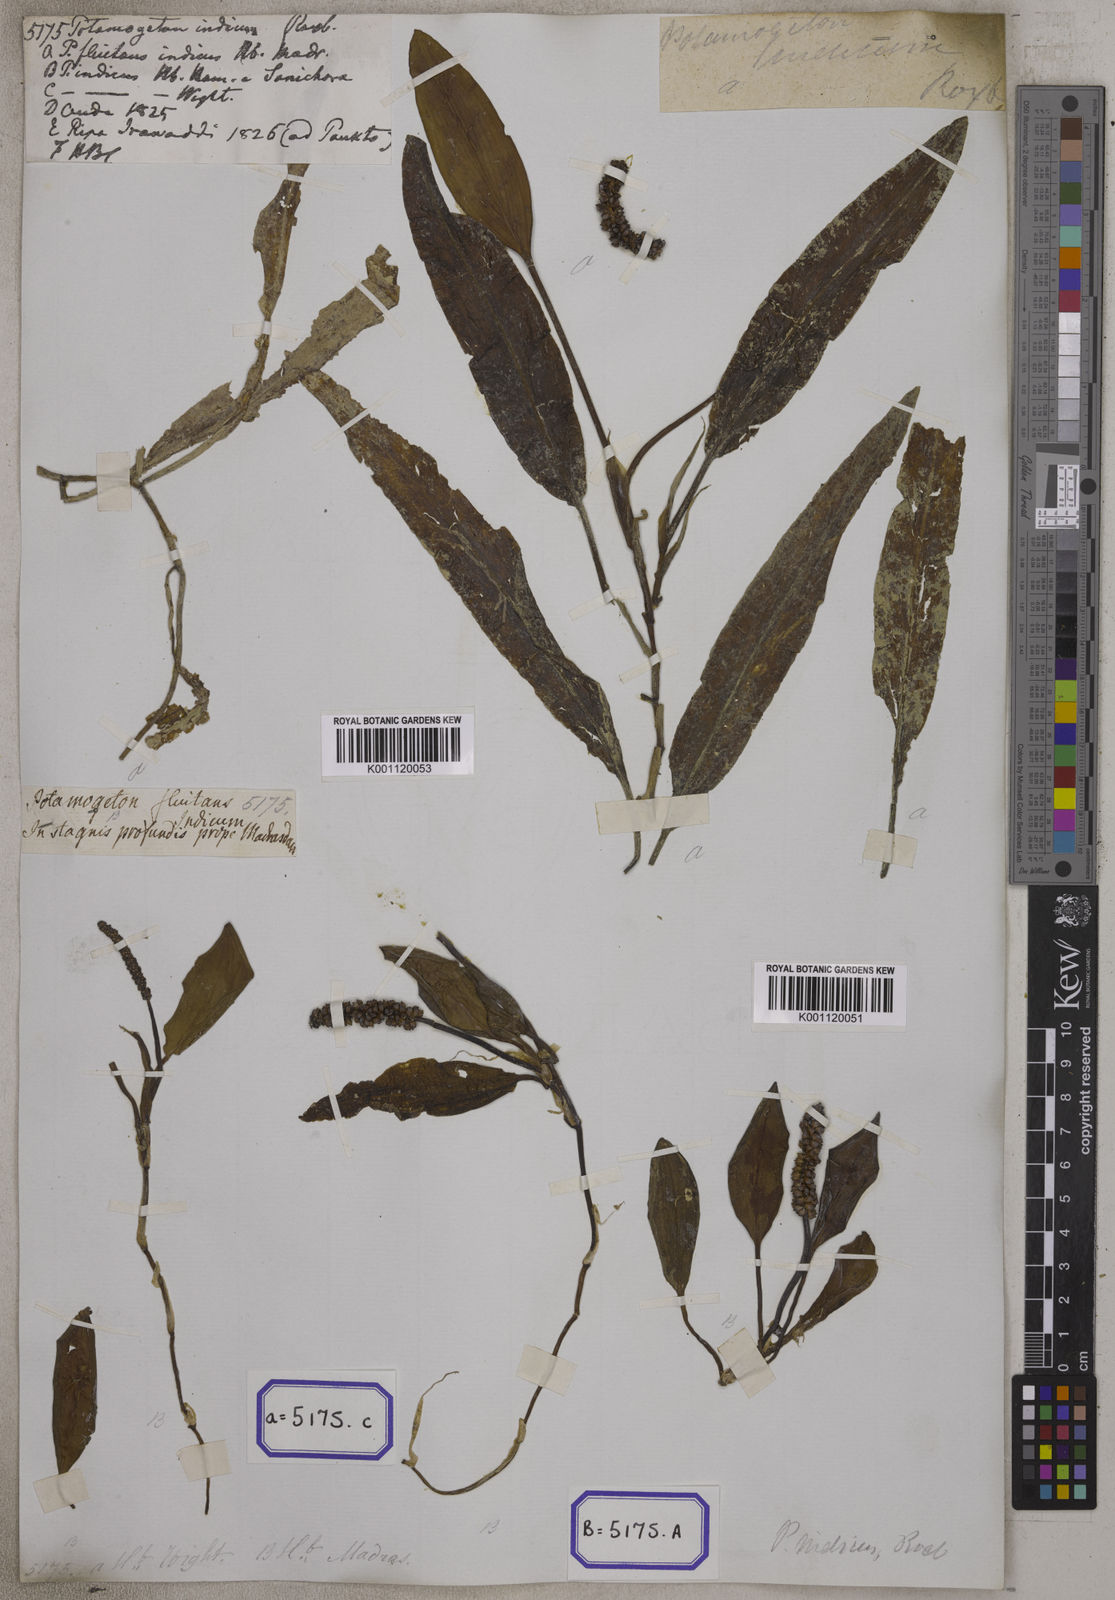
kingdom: Plantae
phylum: Tracheophyta
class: Liliopsida
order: Alismatales
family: Potamogetonaceae
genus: Potamogeton
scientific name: Potamogeton nodosus
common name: Loddon pondweed
